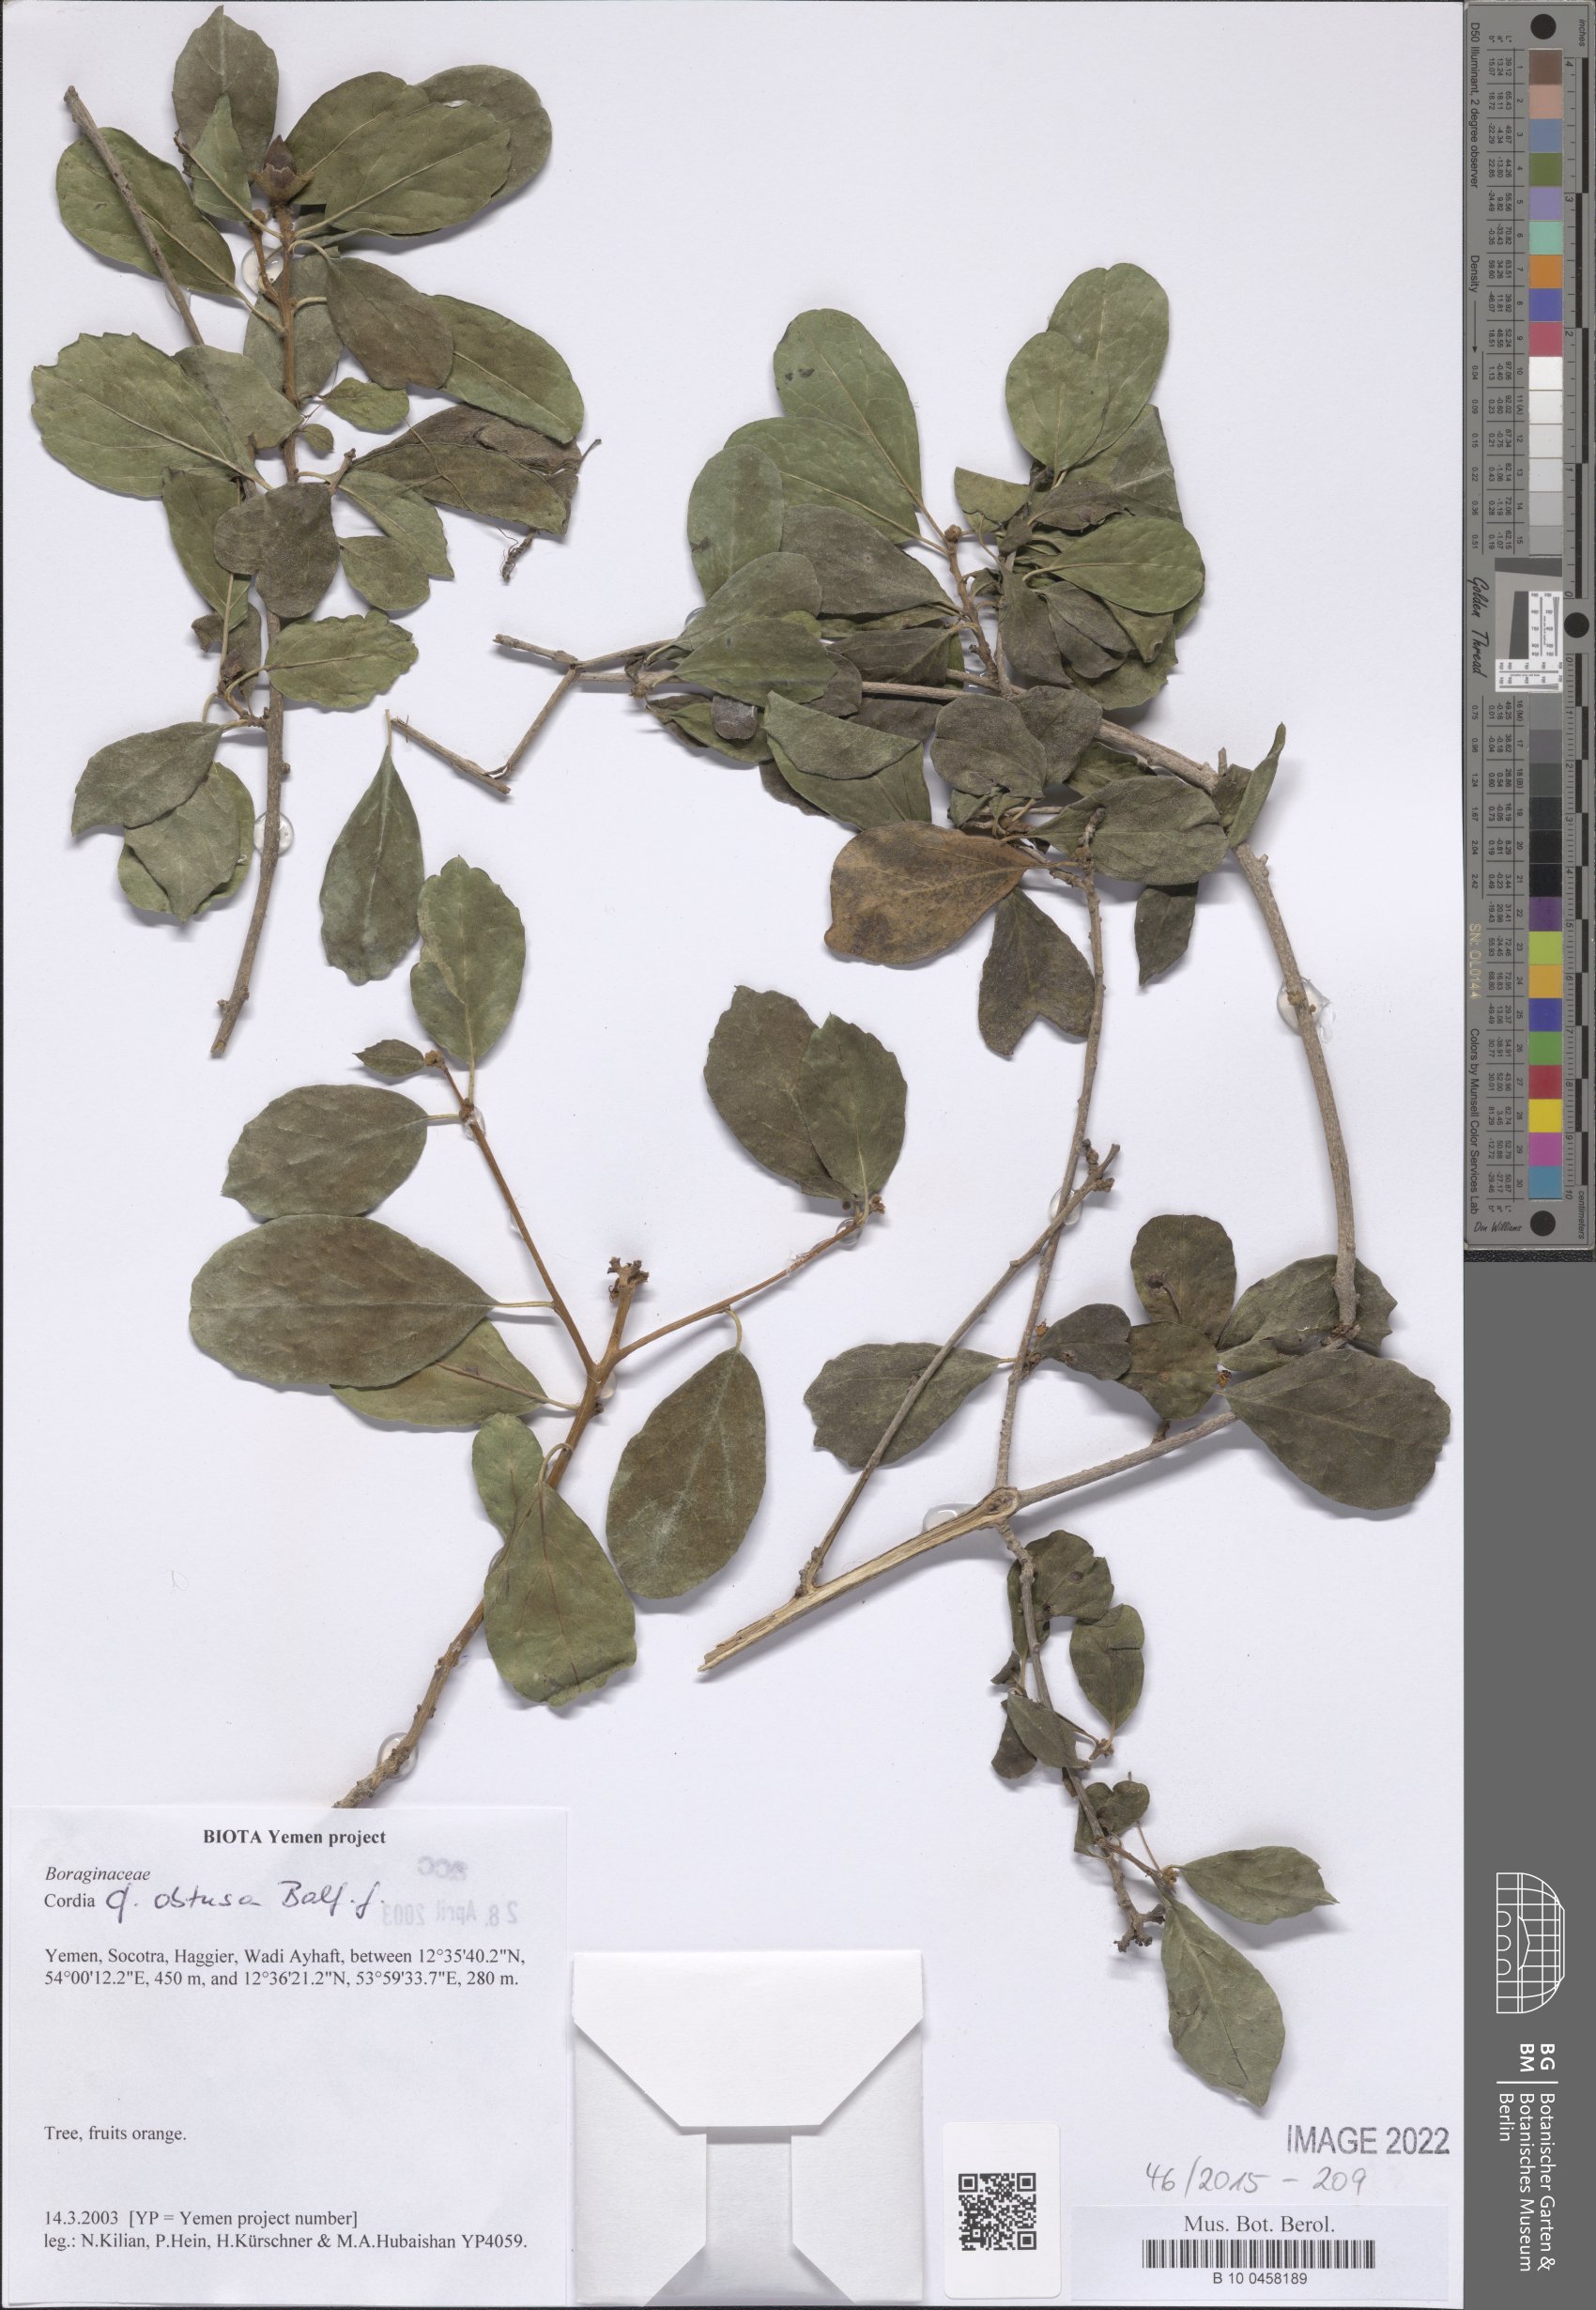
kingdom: Plantae
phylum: Tracheophyta
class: Magnoliopsida
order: Boraginales
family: Cordiaceae
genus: Cordia
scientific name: Cordia obtusa
